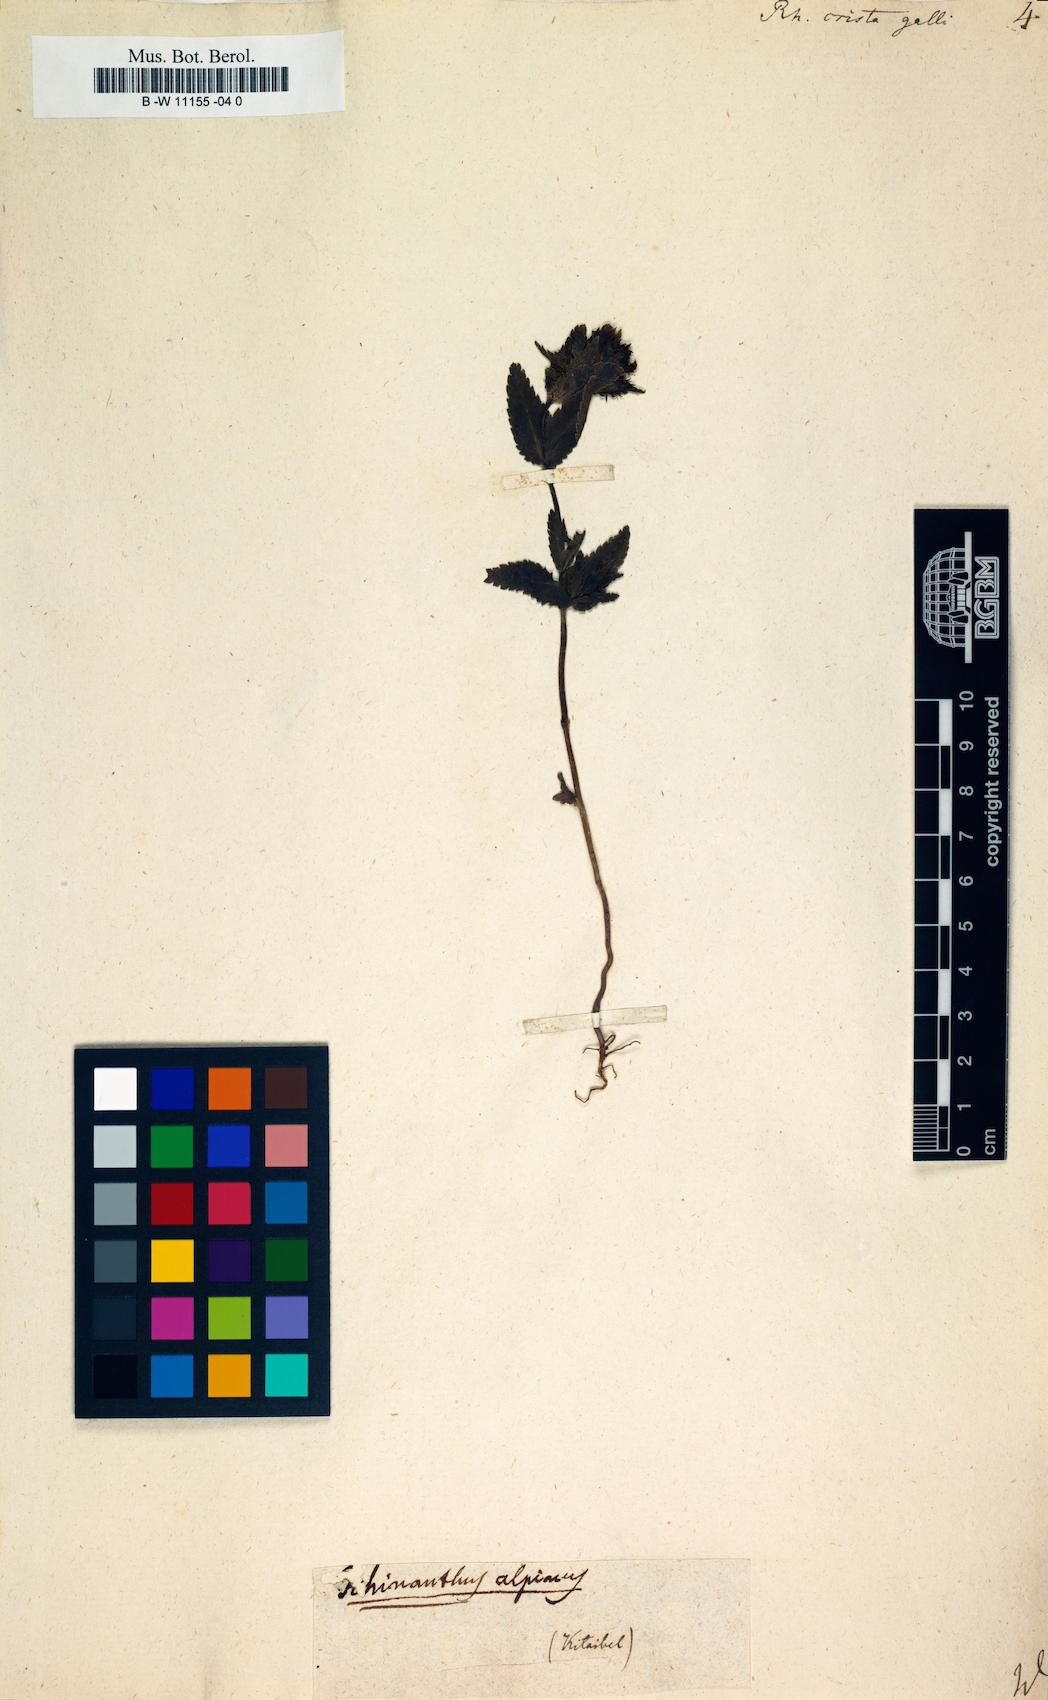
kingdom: Plantae
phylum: Tracheophyta
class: Magnoliopsida
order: Lamiales
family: Orobanchaceae
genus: Rhinanthus
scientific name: Rhinanthus
